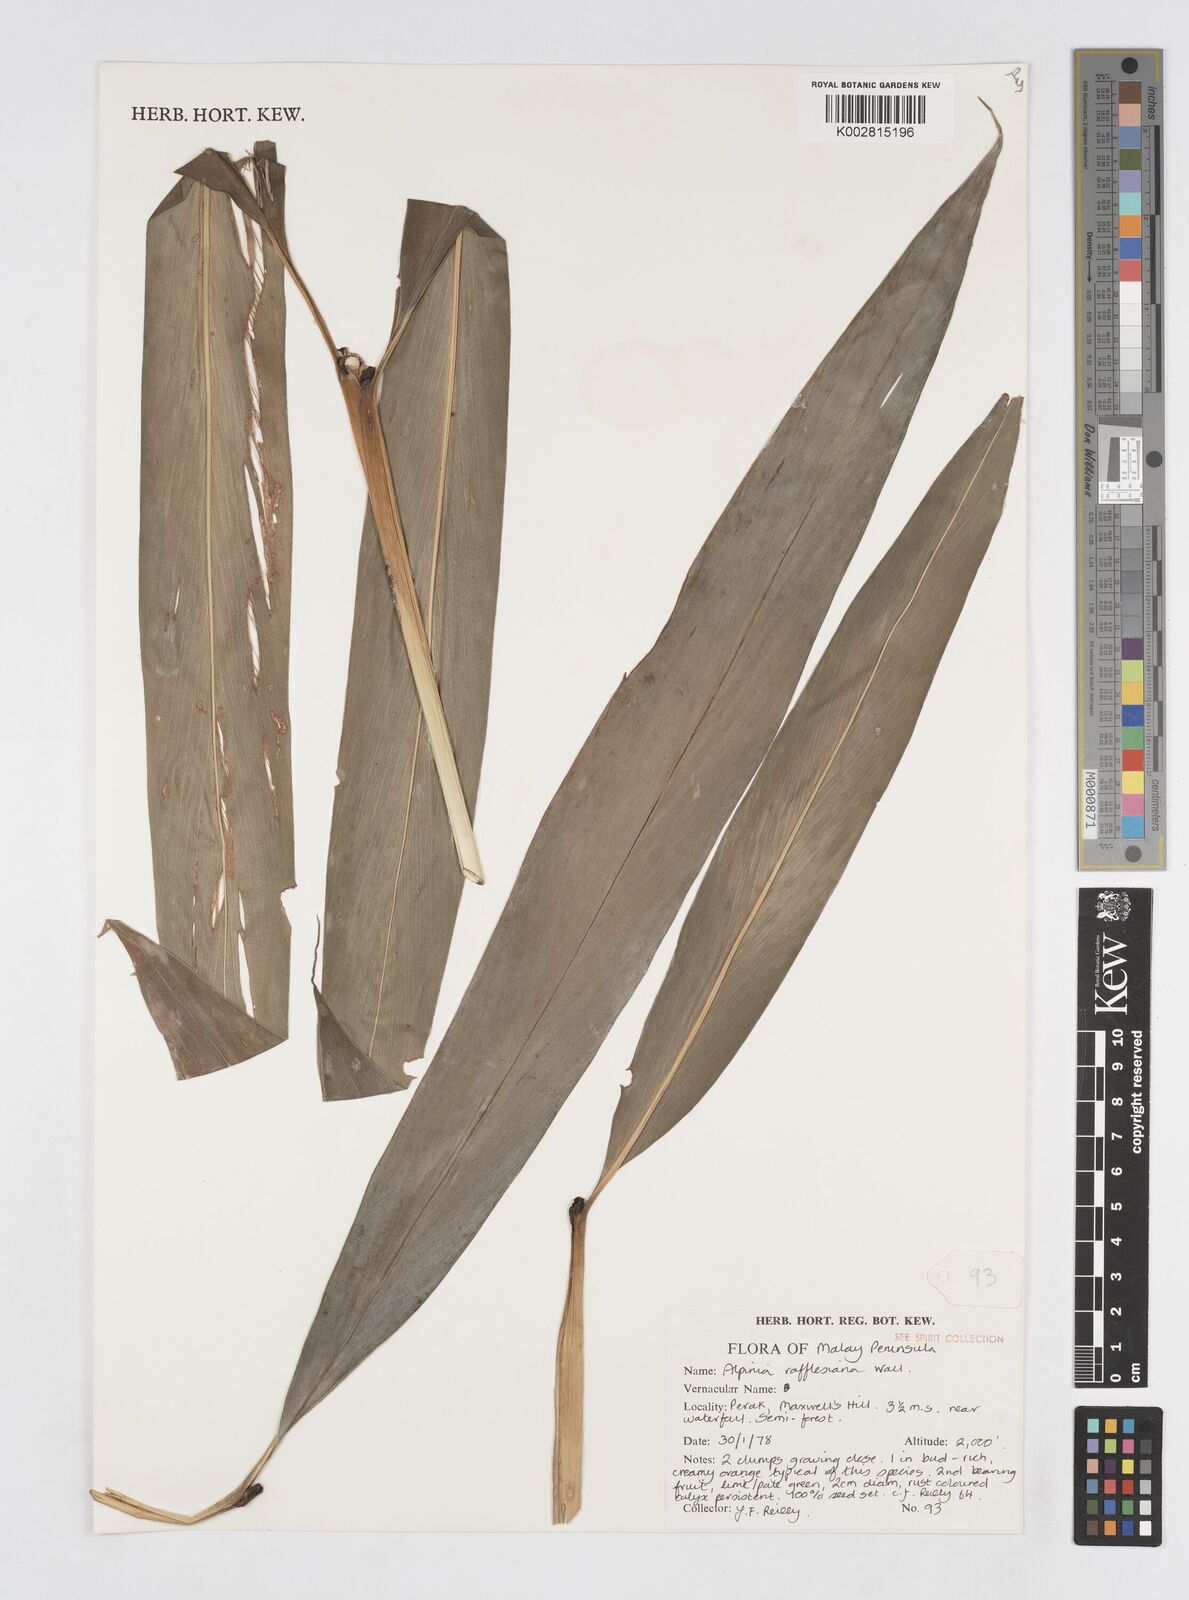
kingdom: Plantae
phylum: Tracheophyta
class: Liliopsida
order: Zingiberales
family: Zingiberaceae
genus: Alpinia
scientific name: Alpinia rafflesiana
